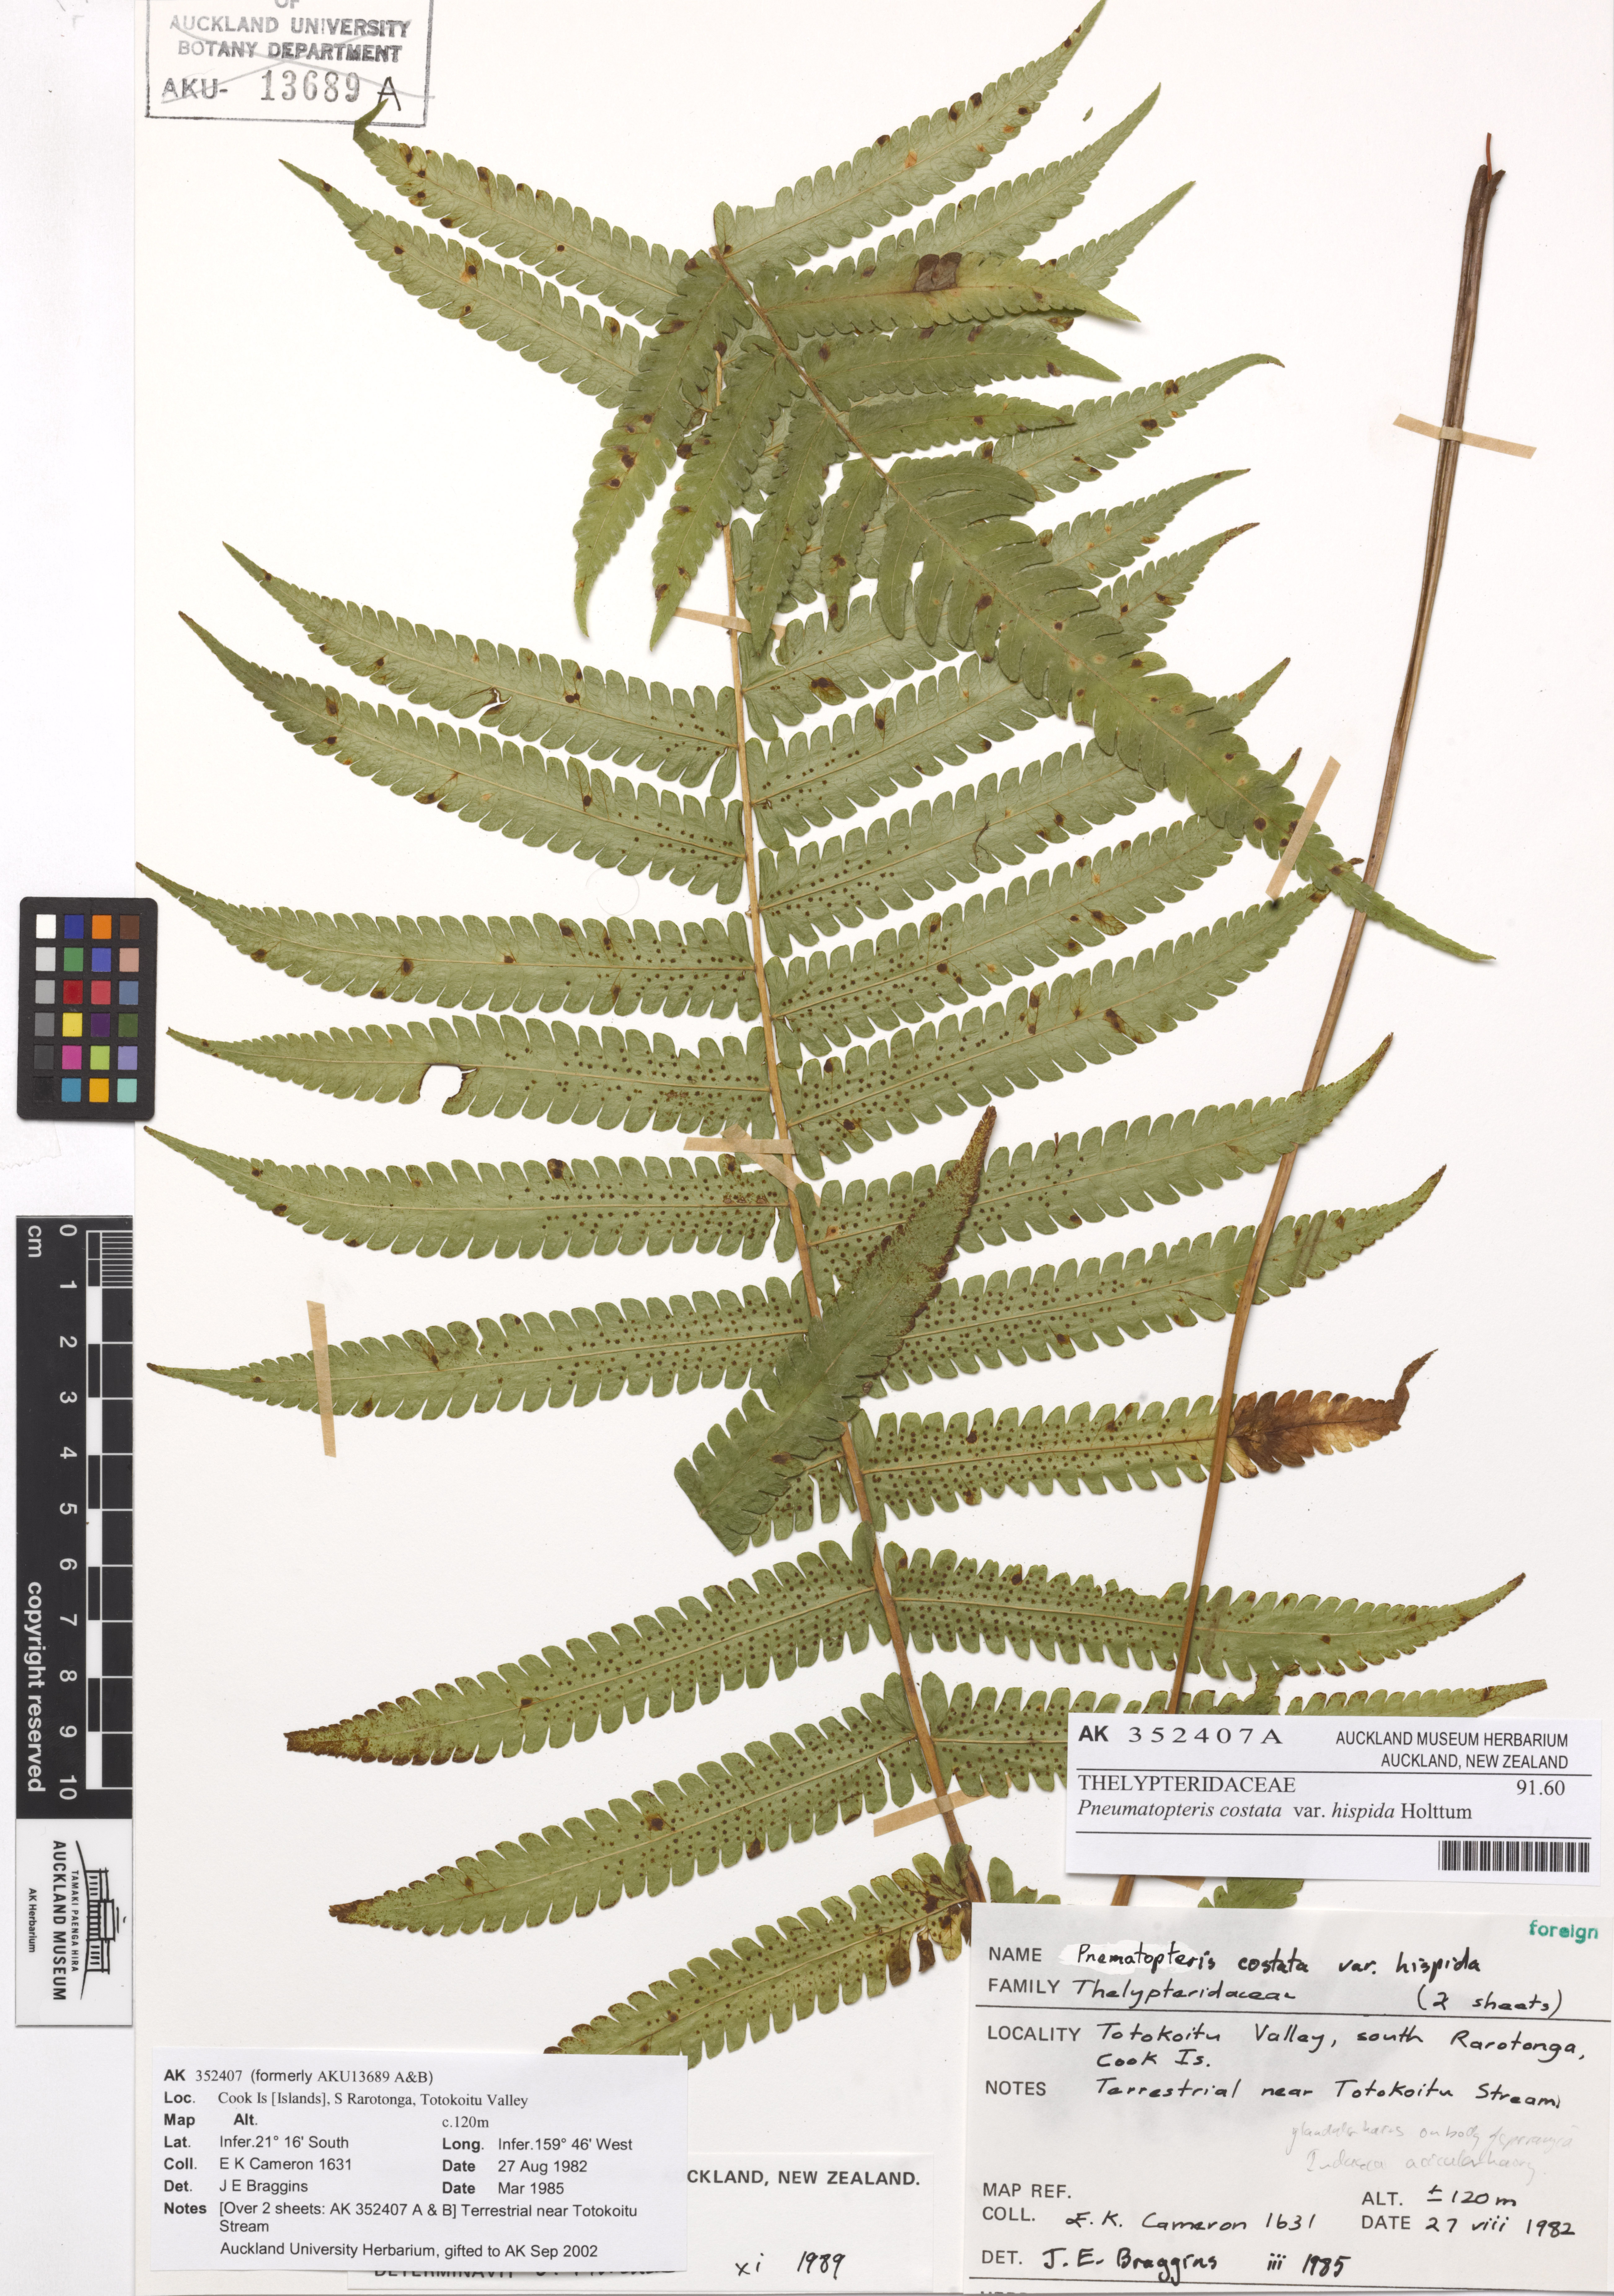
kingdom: Plantae
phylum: Tracheophyta
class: Polypodiopsida
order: Polypodiales
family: Thelypteridaceae
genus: Reholttumia
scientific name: Reholttumia costata
